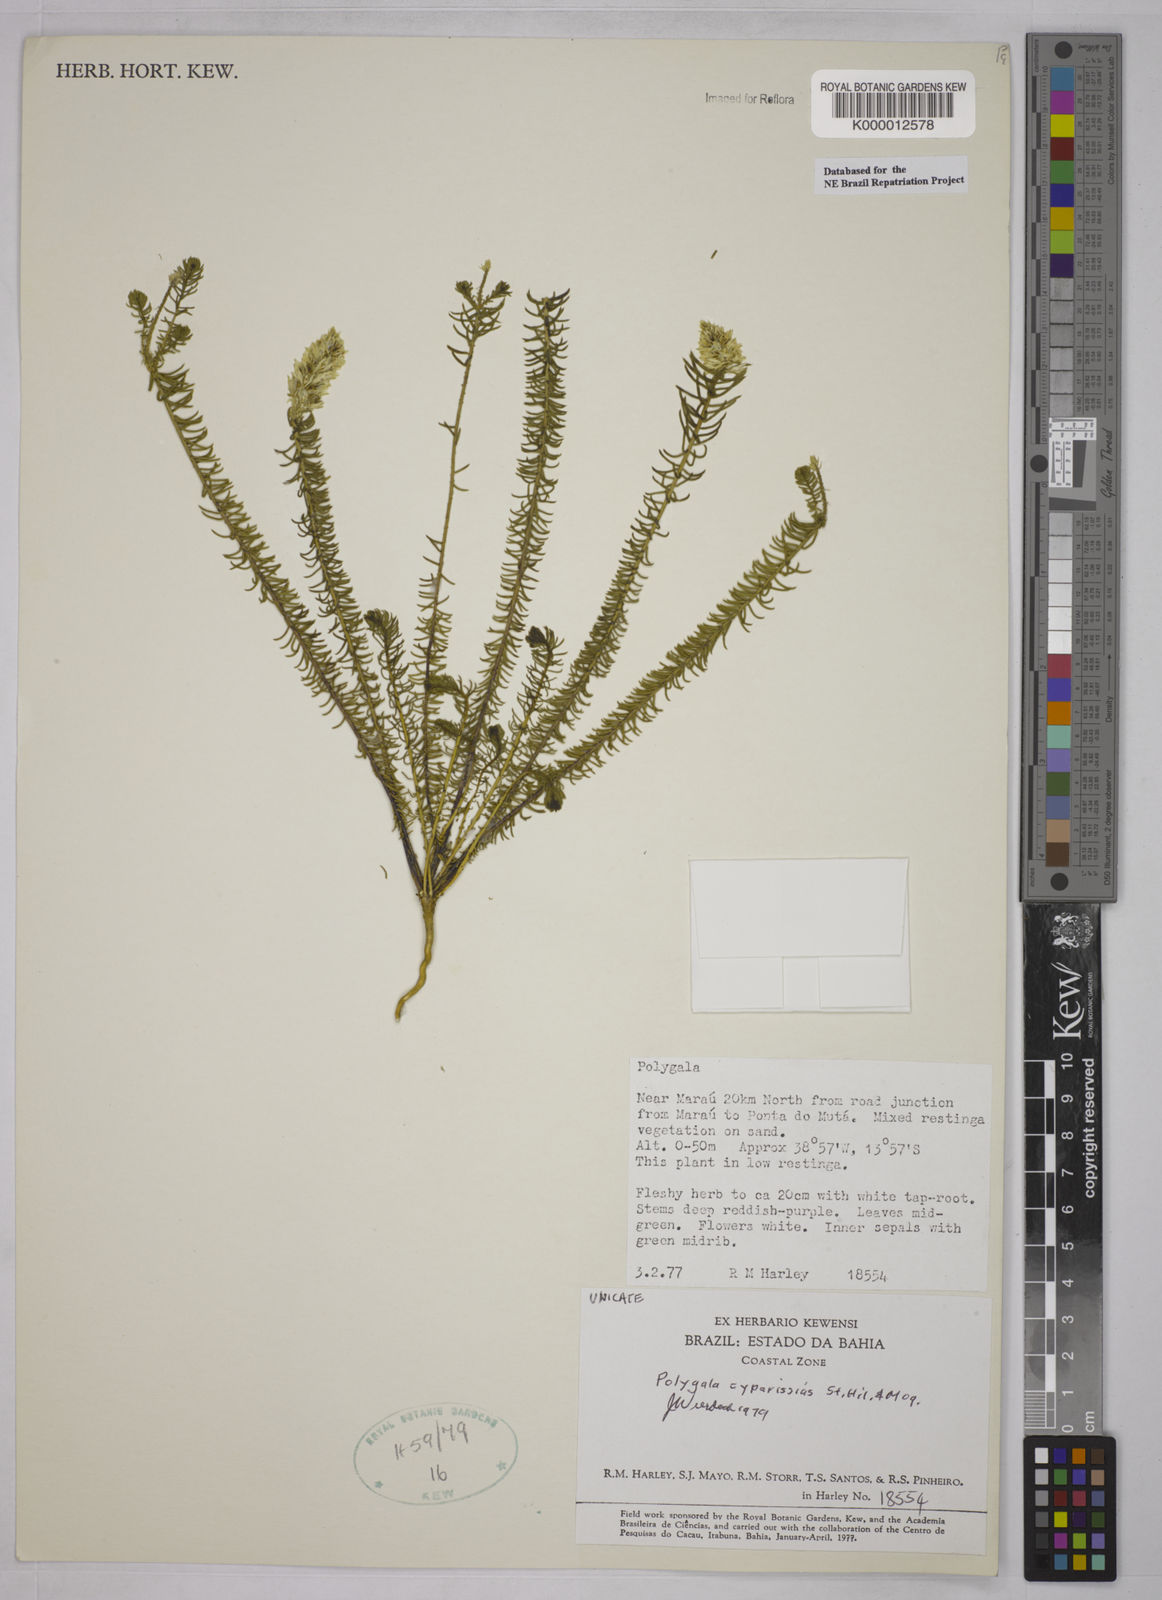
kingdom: Plantae
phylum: Tracheophyta
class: Magnoliopsida
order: Fabales
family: Polygalaceae
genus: Polygala
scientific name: Polygala cyparissias
